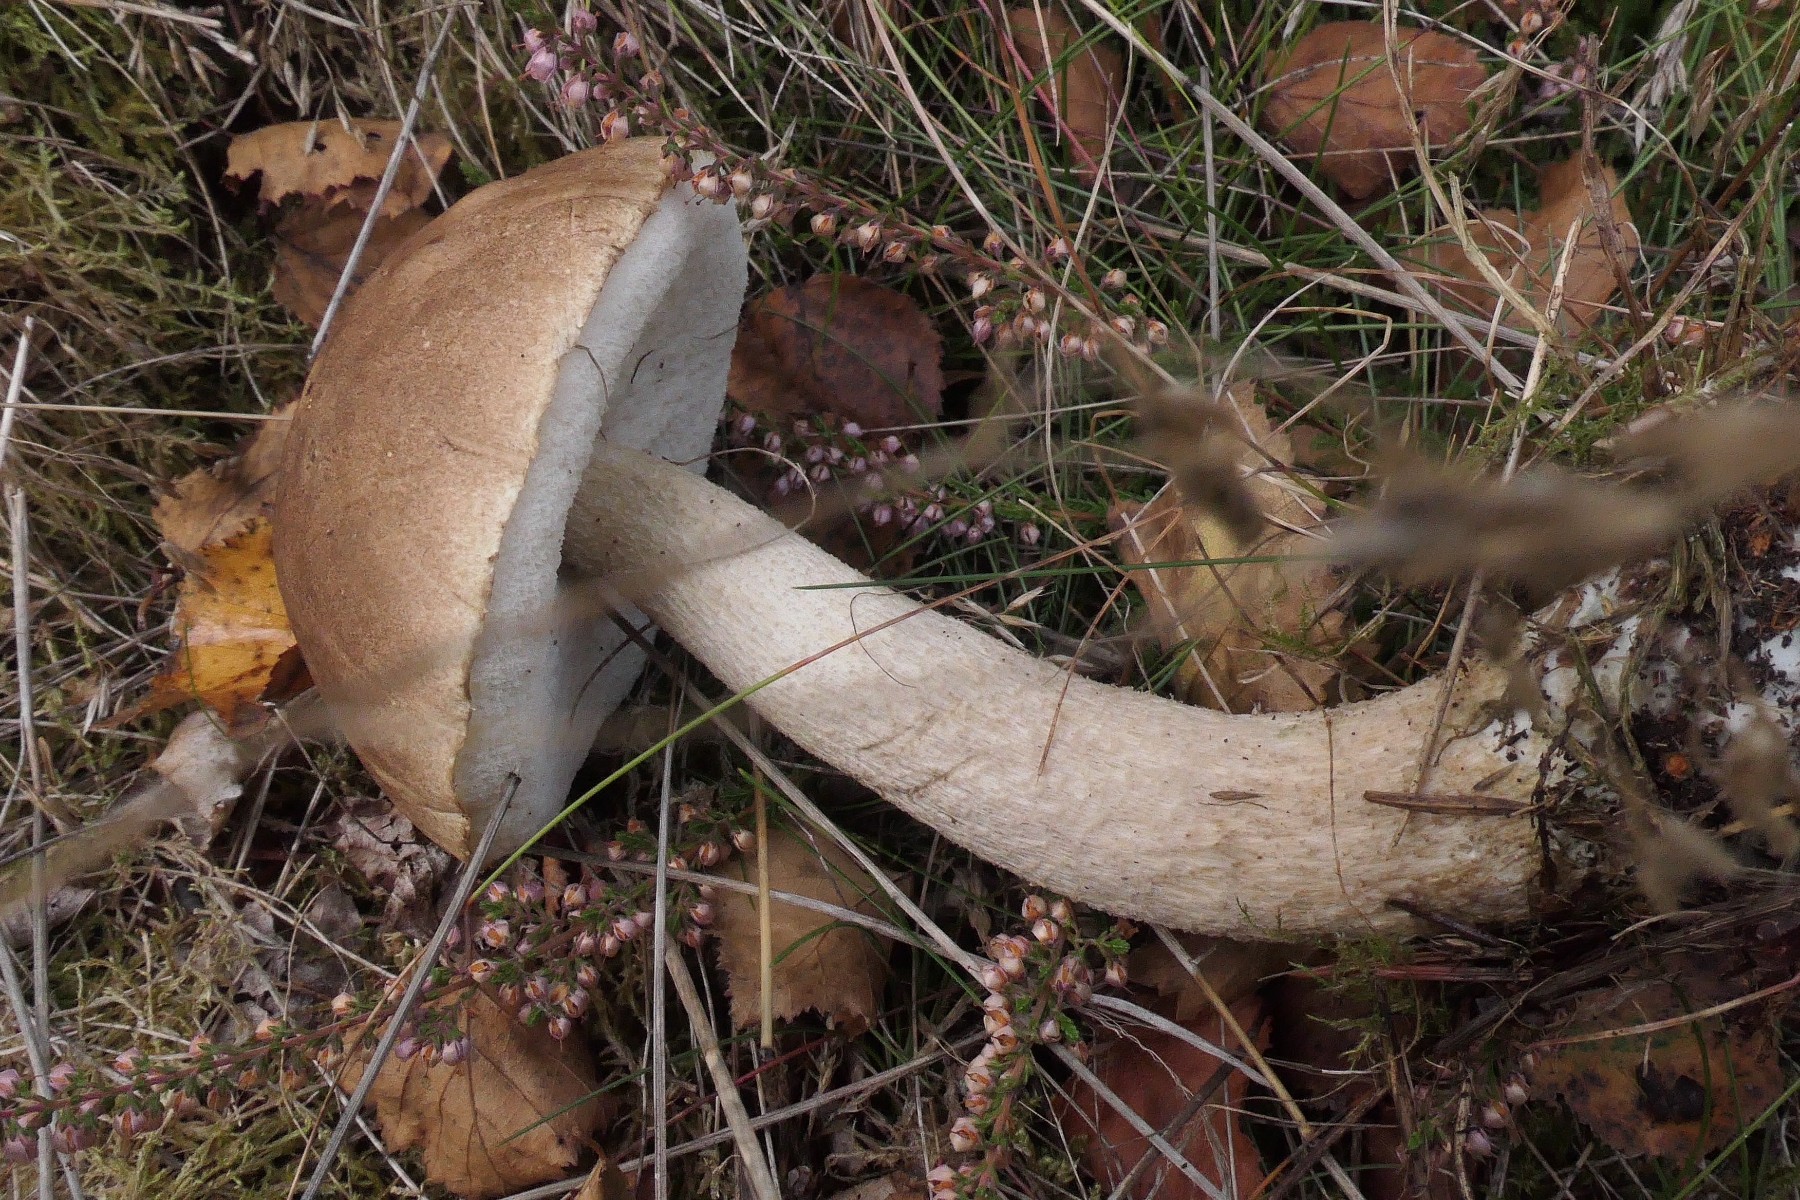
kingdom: Fungi
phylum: Basidiomycota
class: Agaricomycetes
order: Boletales
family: Boletaceae
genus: Leccinum
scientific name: Leccinum cyaneobasileucum
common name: almindelig skælrørhat
